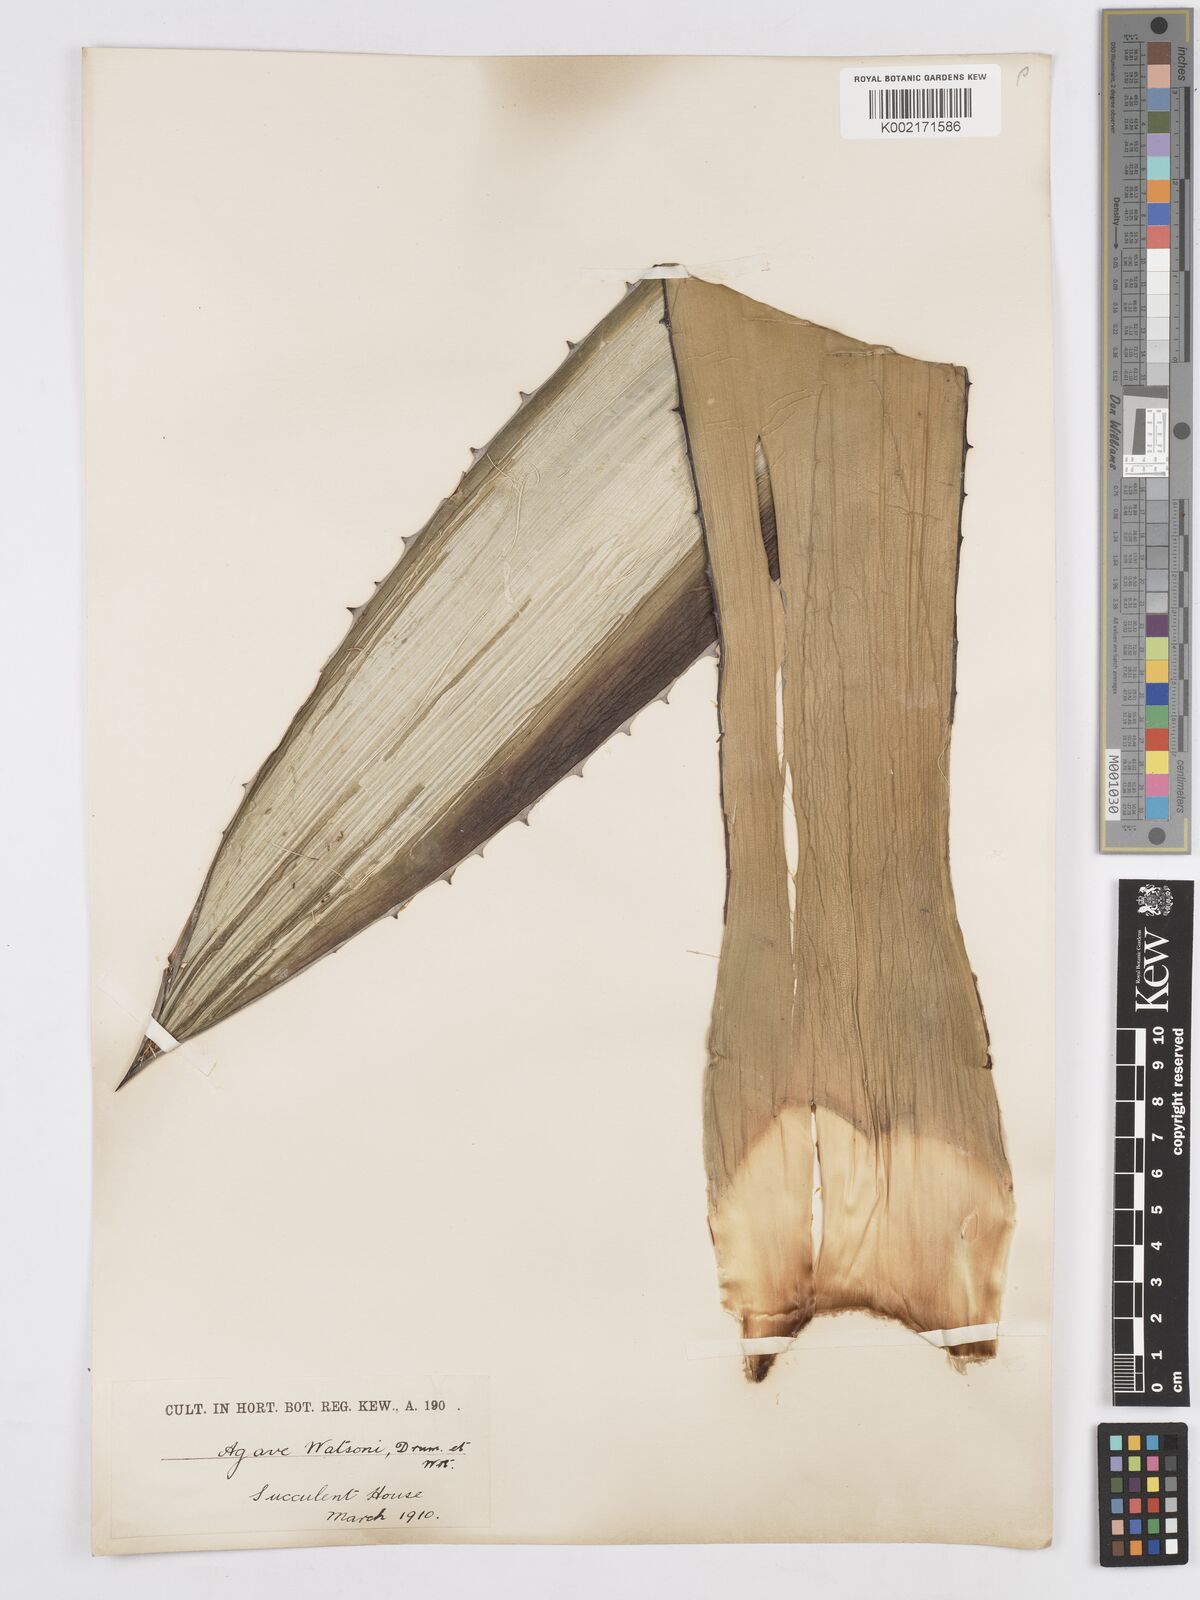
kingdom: Plantae
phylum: Tracheophyta
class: Liliopsida
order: Asparagales
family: Asparagaceae
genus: Agave
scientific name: Agave watsonii
